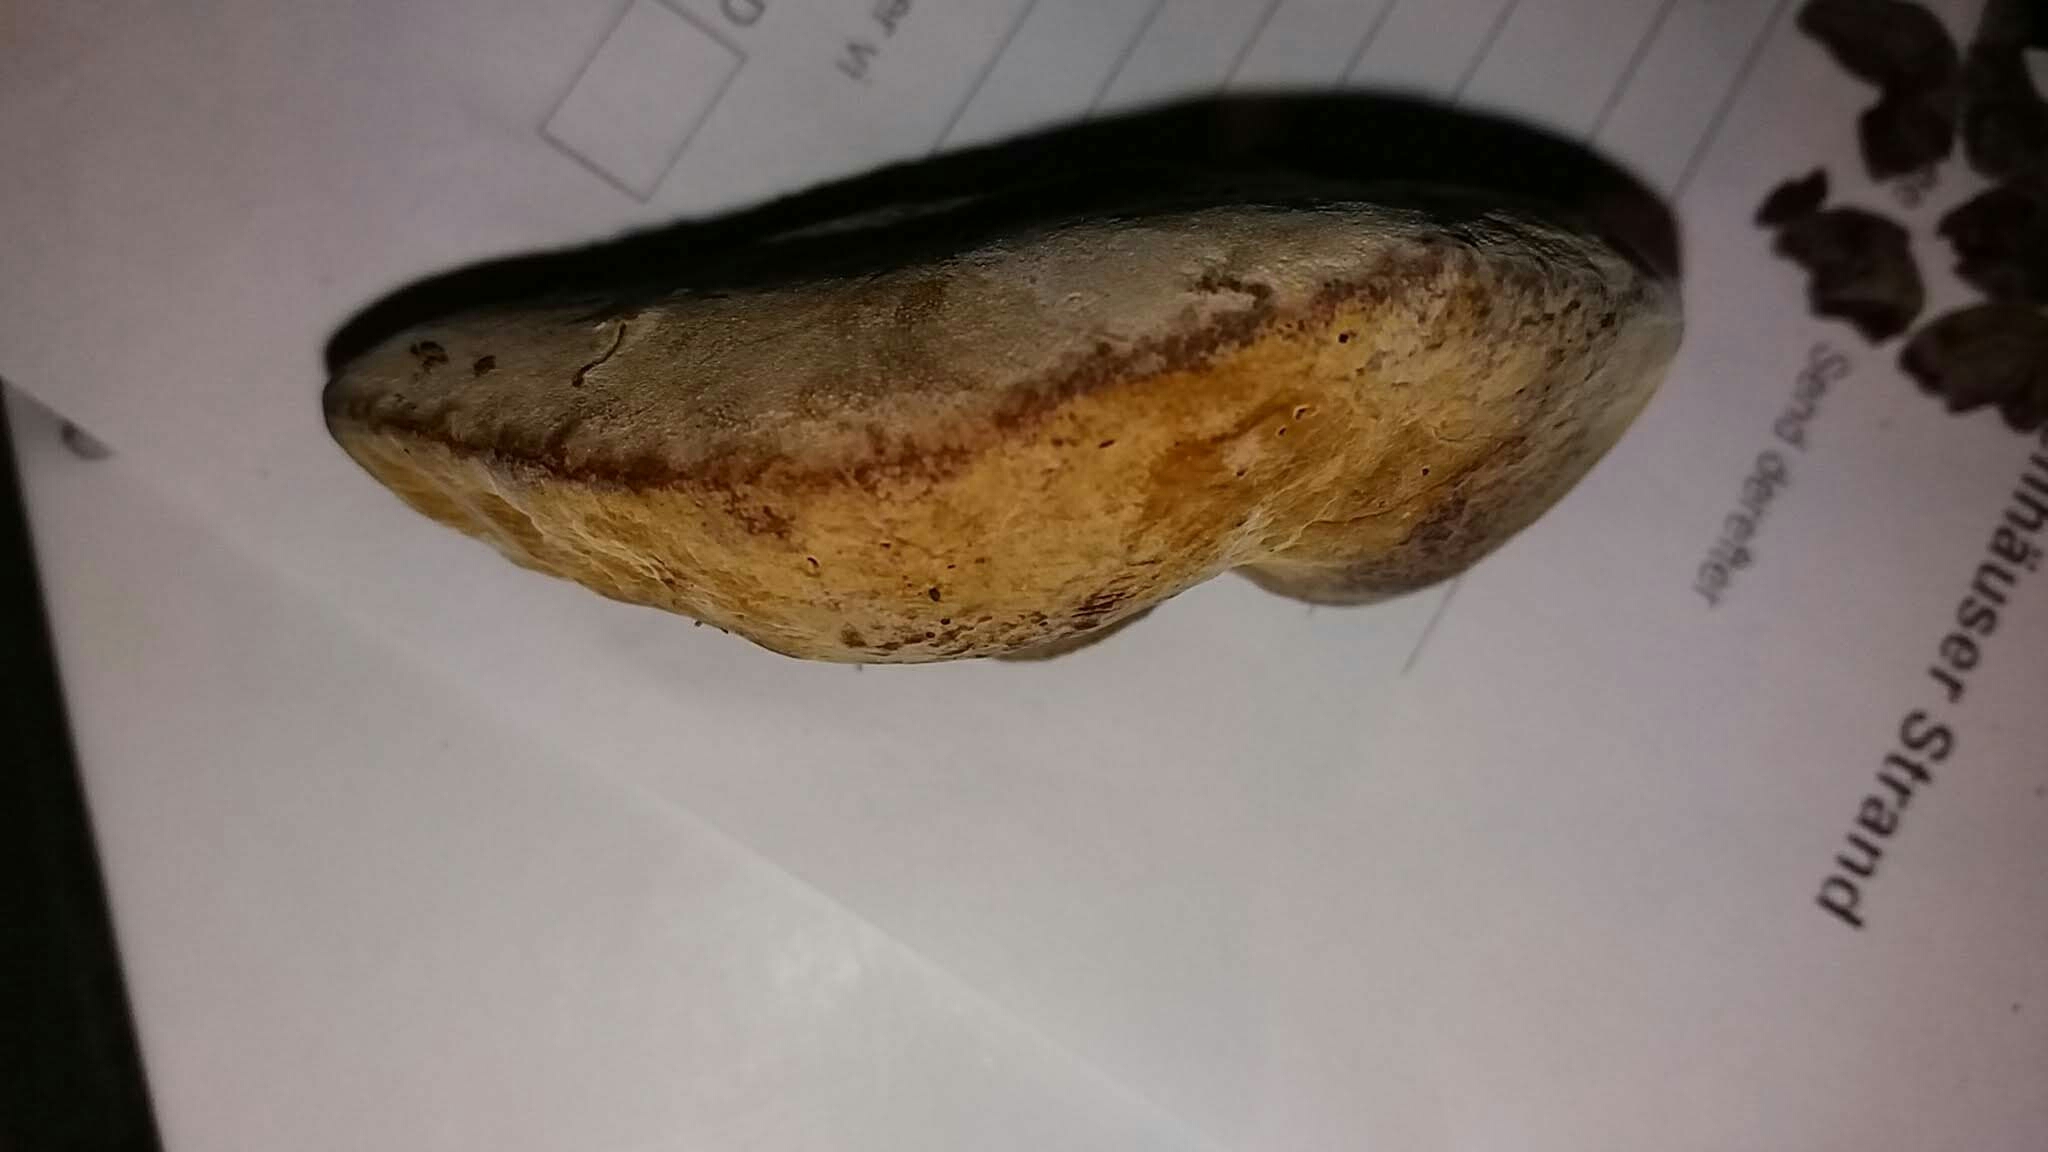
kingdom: Fungi
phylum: Basidiomycota
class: Agaricomycetes
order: Hymenochaetales
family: Hymenochaetaceae
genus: Phellinus
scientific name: Phellinus
